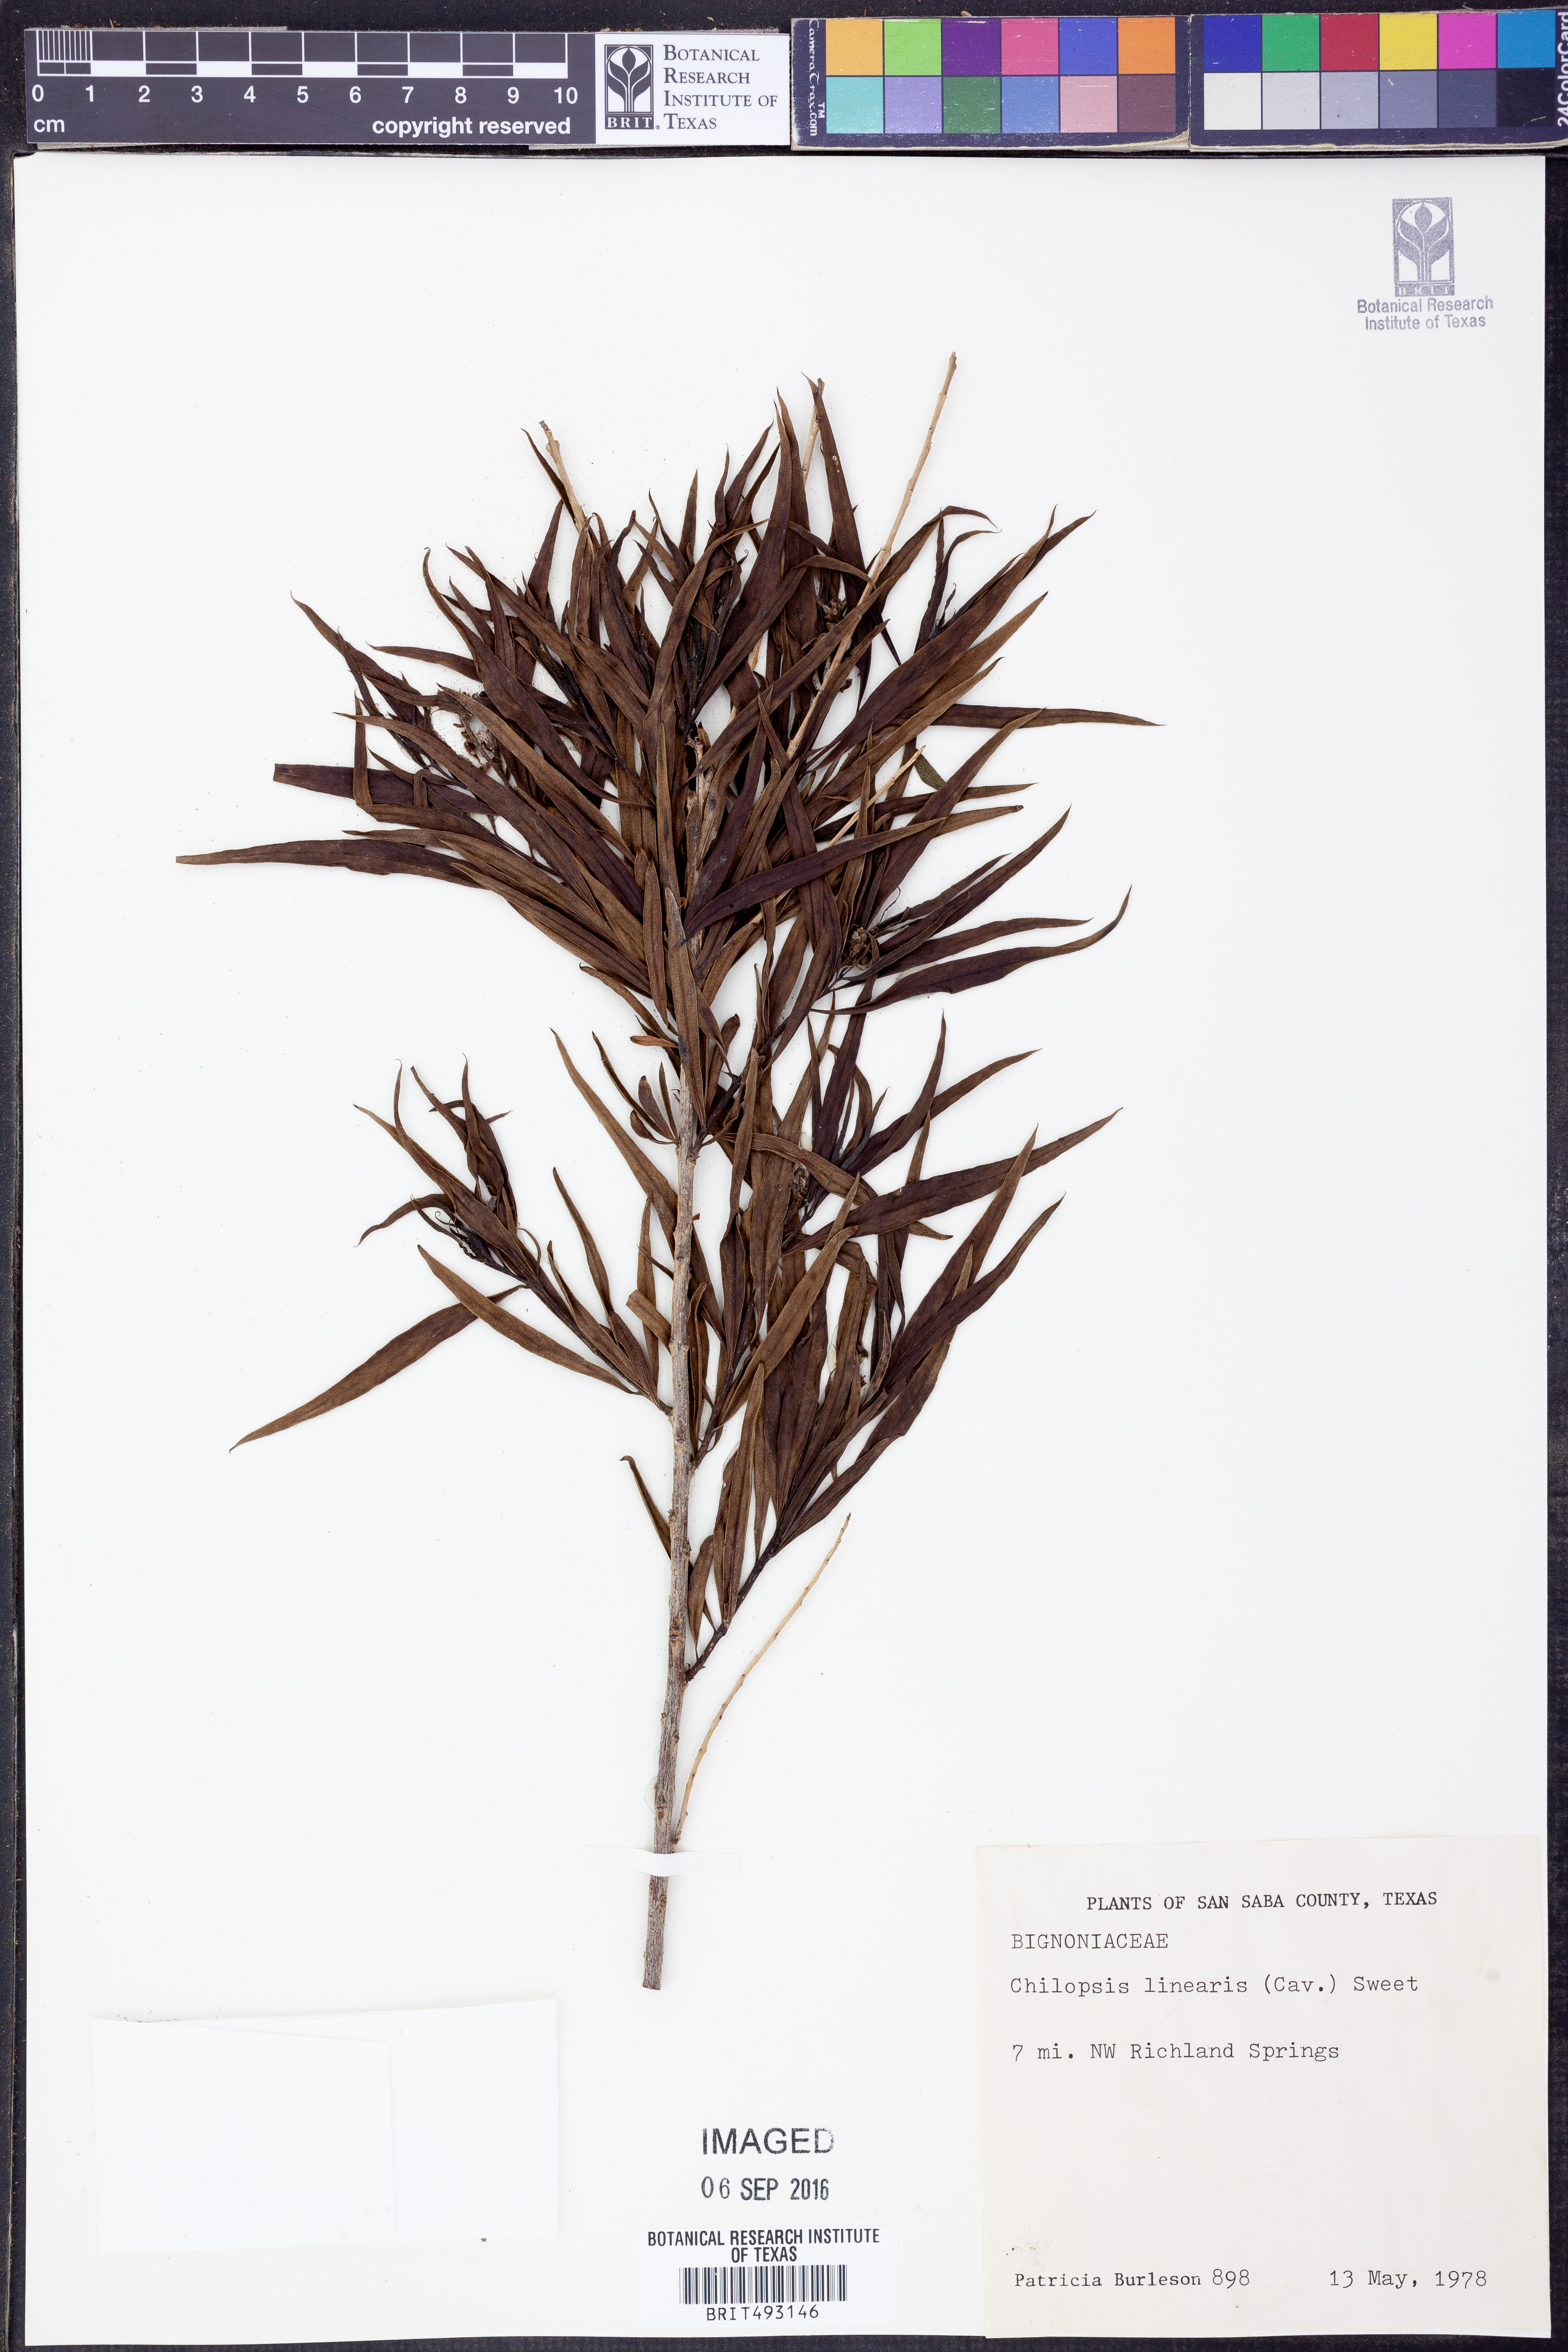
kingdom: Plantae
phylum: Tracheophyta
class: Magnoliopsida
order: Lamiales
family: Bignoniaceae
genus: Chilopsis
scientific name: Chilopsis linearis
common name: Desert-willow
